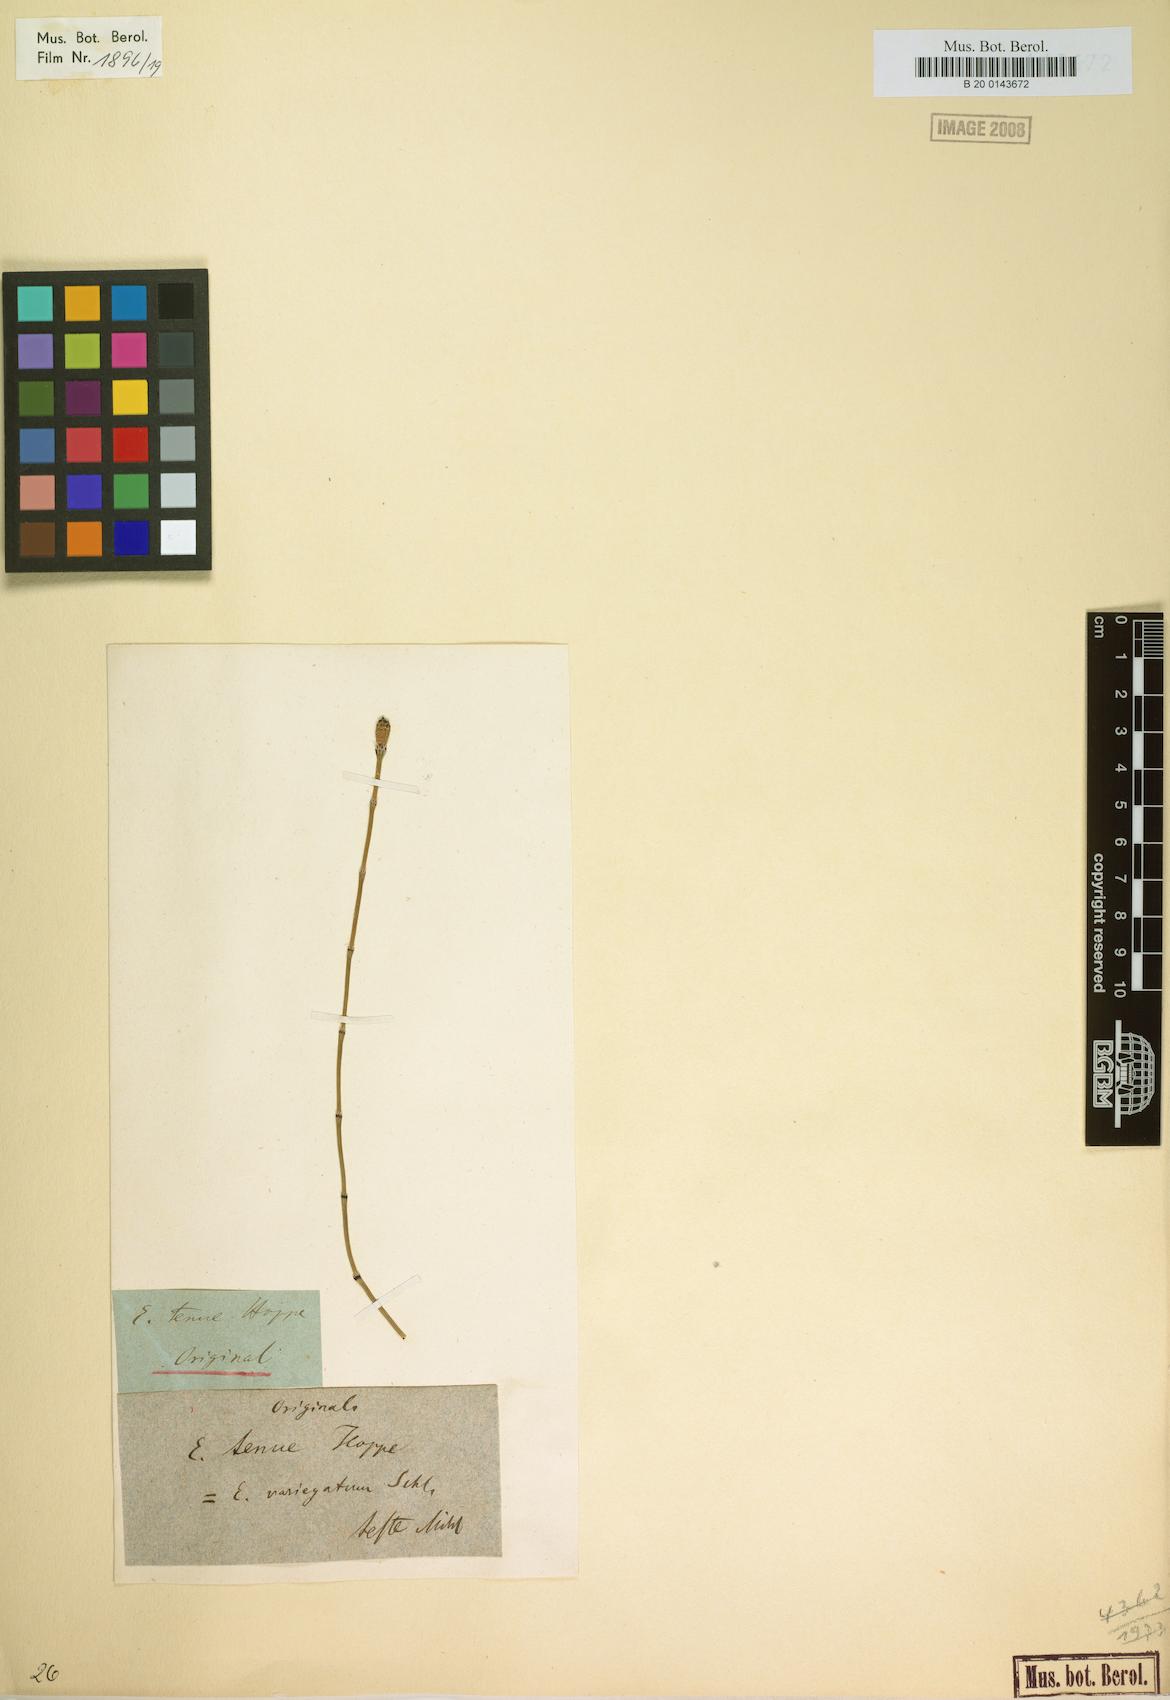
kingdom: Plantae
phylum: Tracheophyta
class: Polypodiopsida
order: Equisetales
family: Equisetaceae
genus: Equisetum
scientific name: Equisetum variegatum
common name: Variegated horsetail
